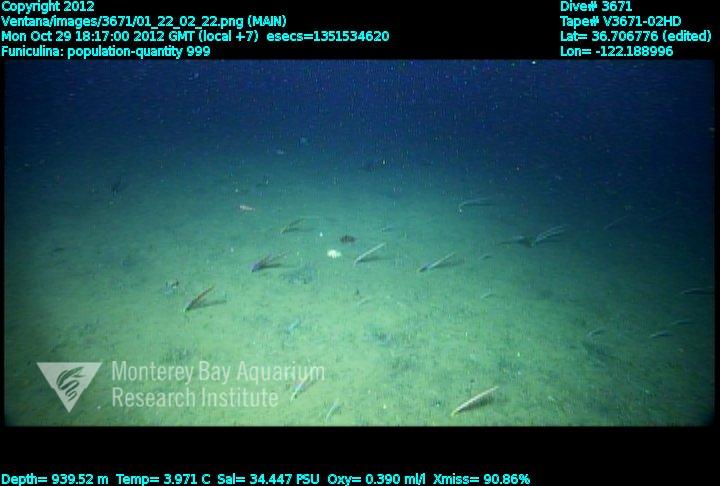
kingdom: Animalia
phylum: Cnidaria
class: Anthozoa
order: Scleralcyonacea
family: Funiculinidae
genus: Funiculina
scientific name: Funiculina
